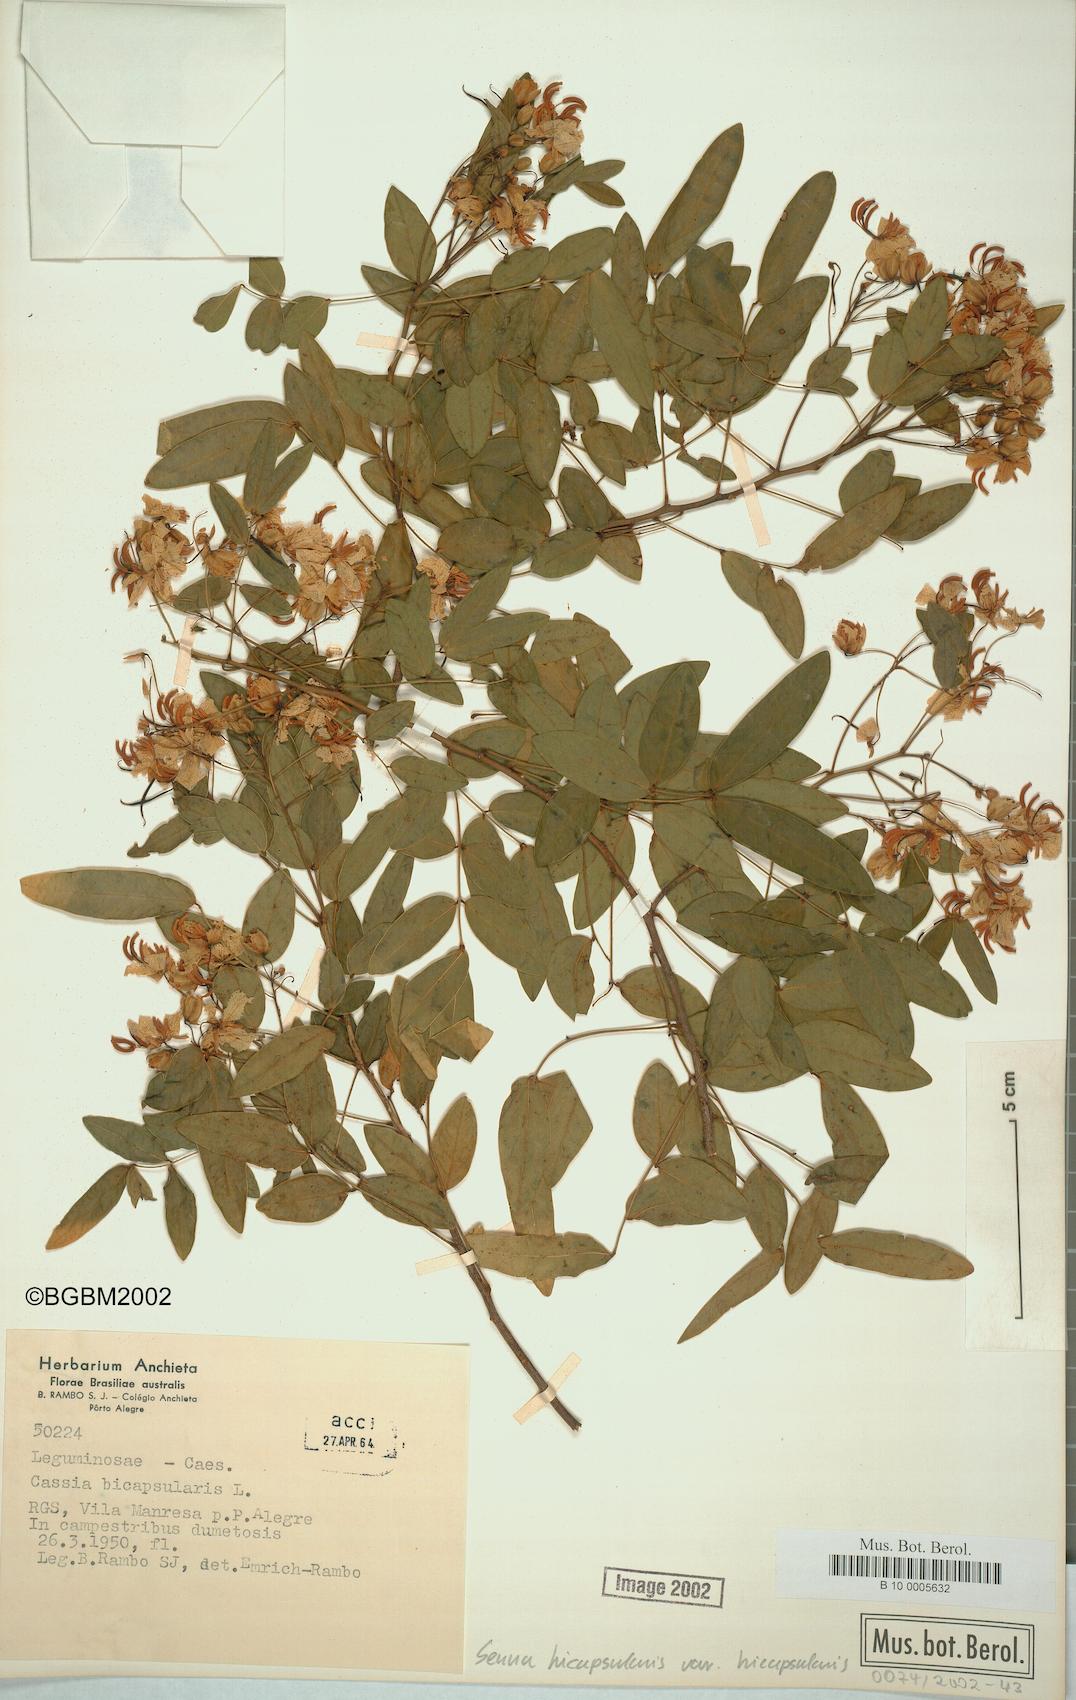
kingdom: Plantae
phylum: Tracheophyta
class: Magnoliopsida
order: Fabales
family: Fabaceae
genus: Senna
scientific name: Senna bicapsularis
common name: Christmasbush
